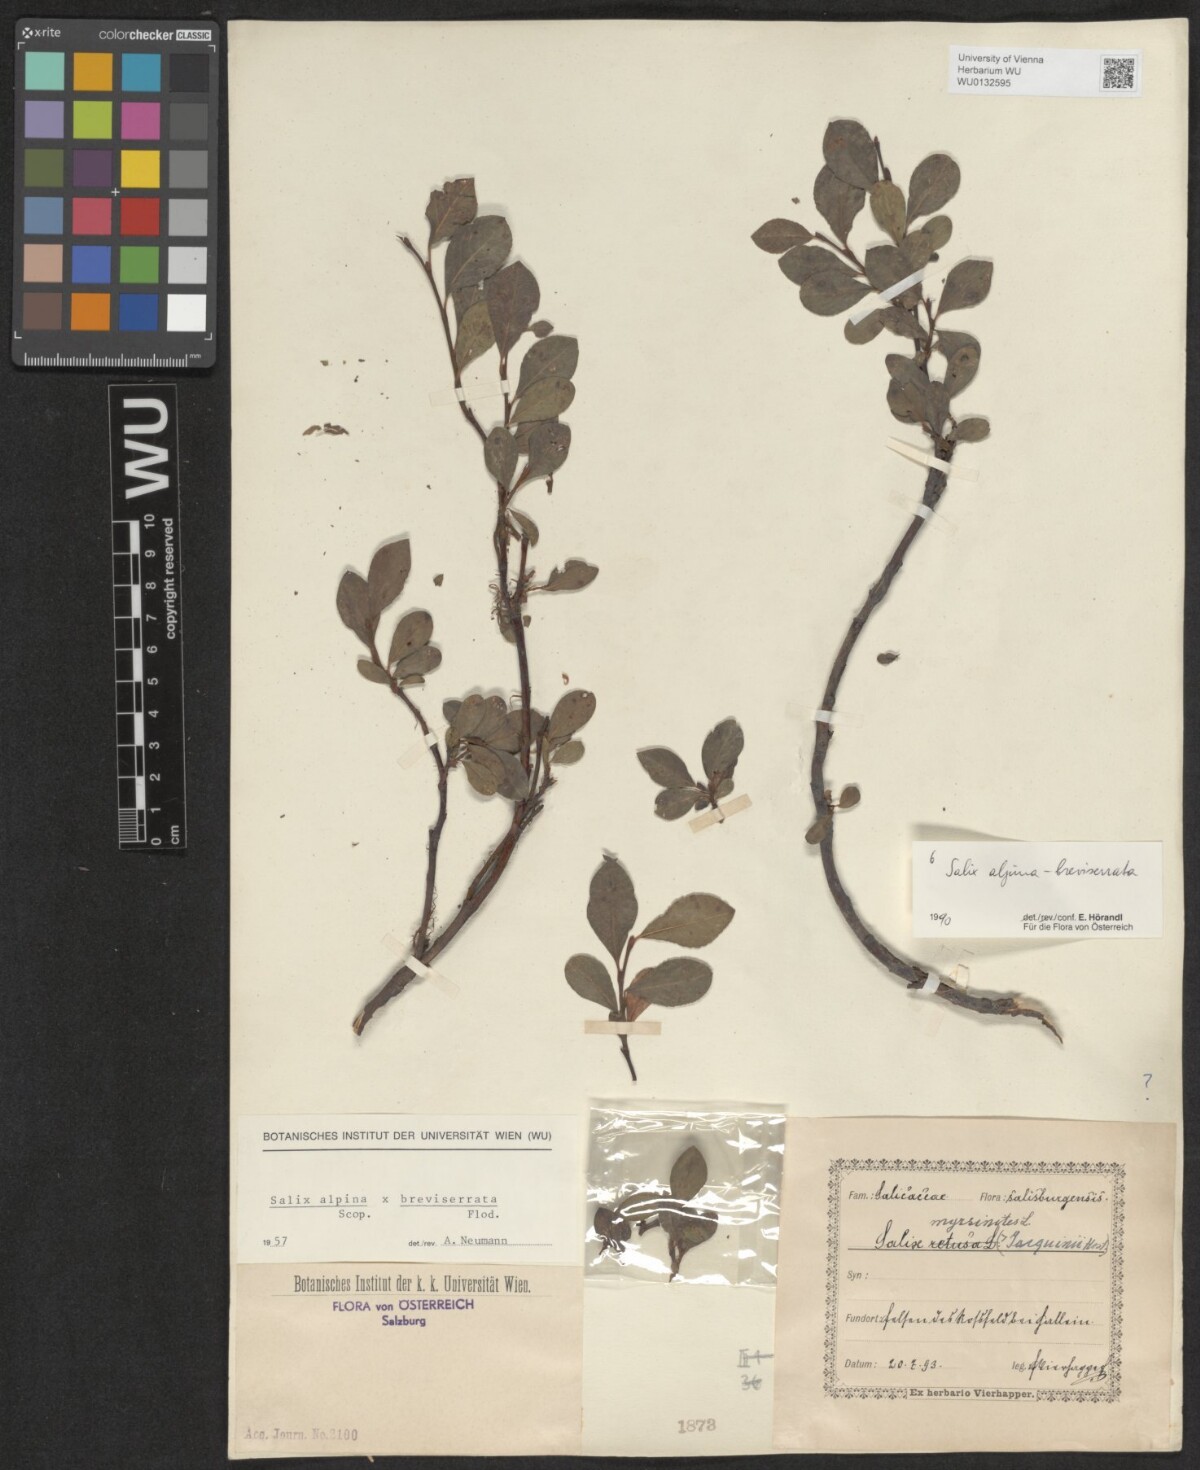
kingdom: Plantae
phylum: Tracheophyta
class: Magnoliopsida
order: Malpighiales
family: Salicaceae
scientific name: Salicaceae
